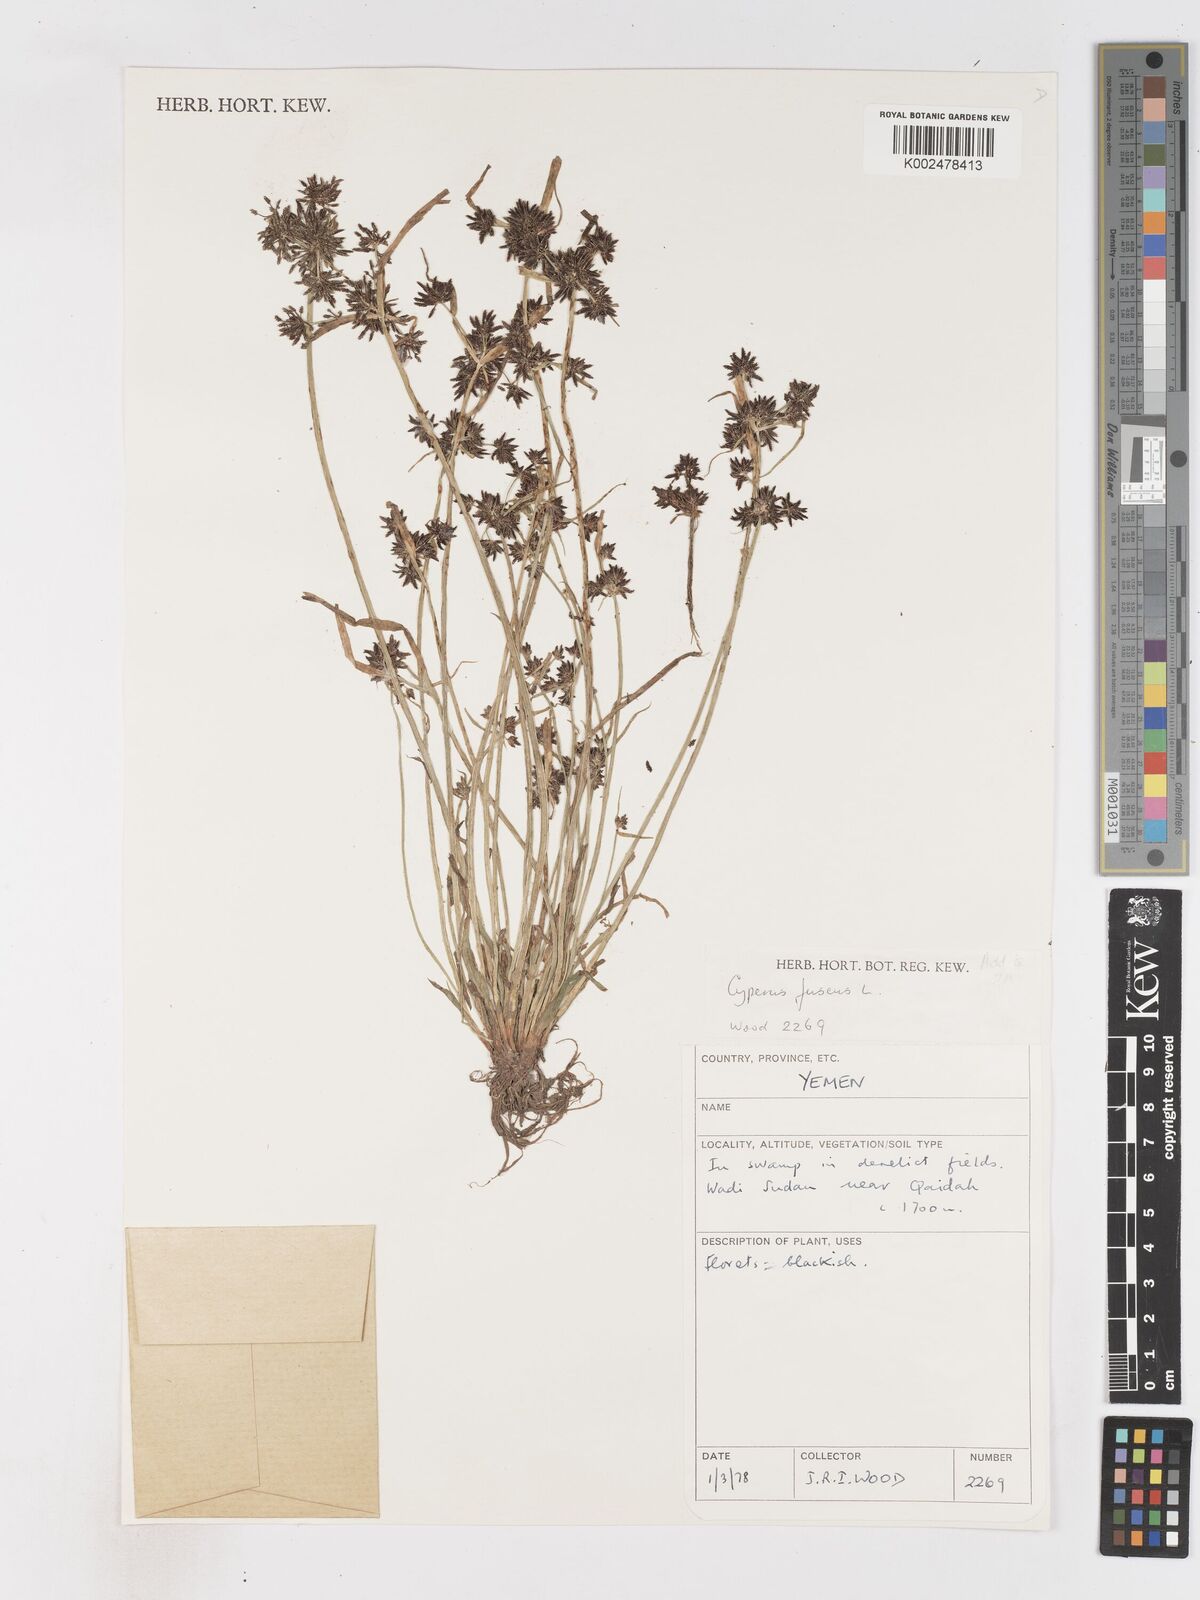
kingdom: Plantae
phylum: Tracheophyta
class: Liliopsida
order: Poales
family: Cyperaceae
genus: Cyperus
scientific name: Cyperus fuscus
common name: Brown galingale
